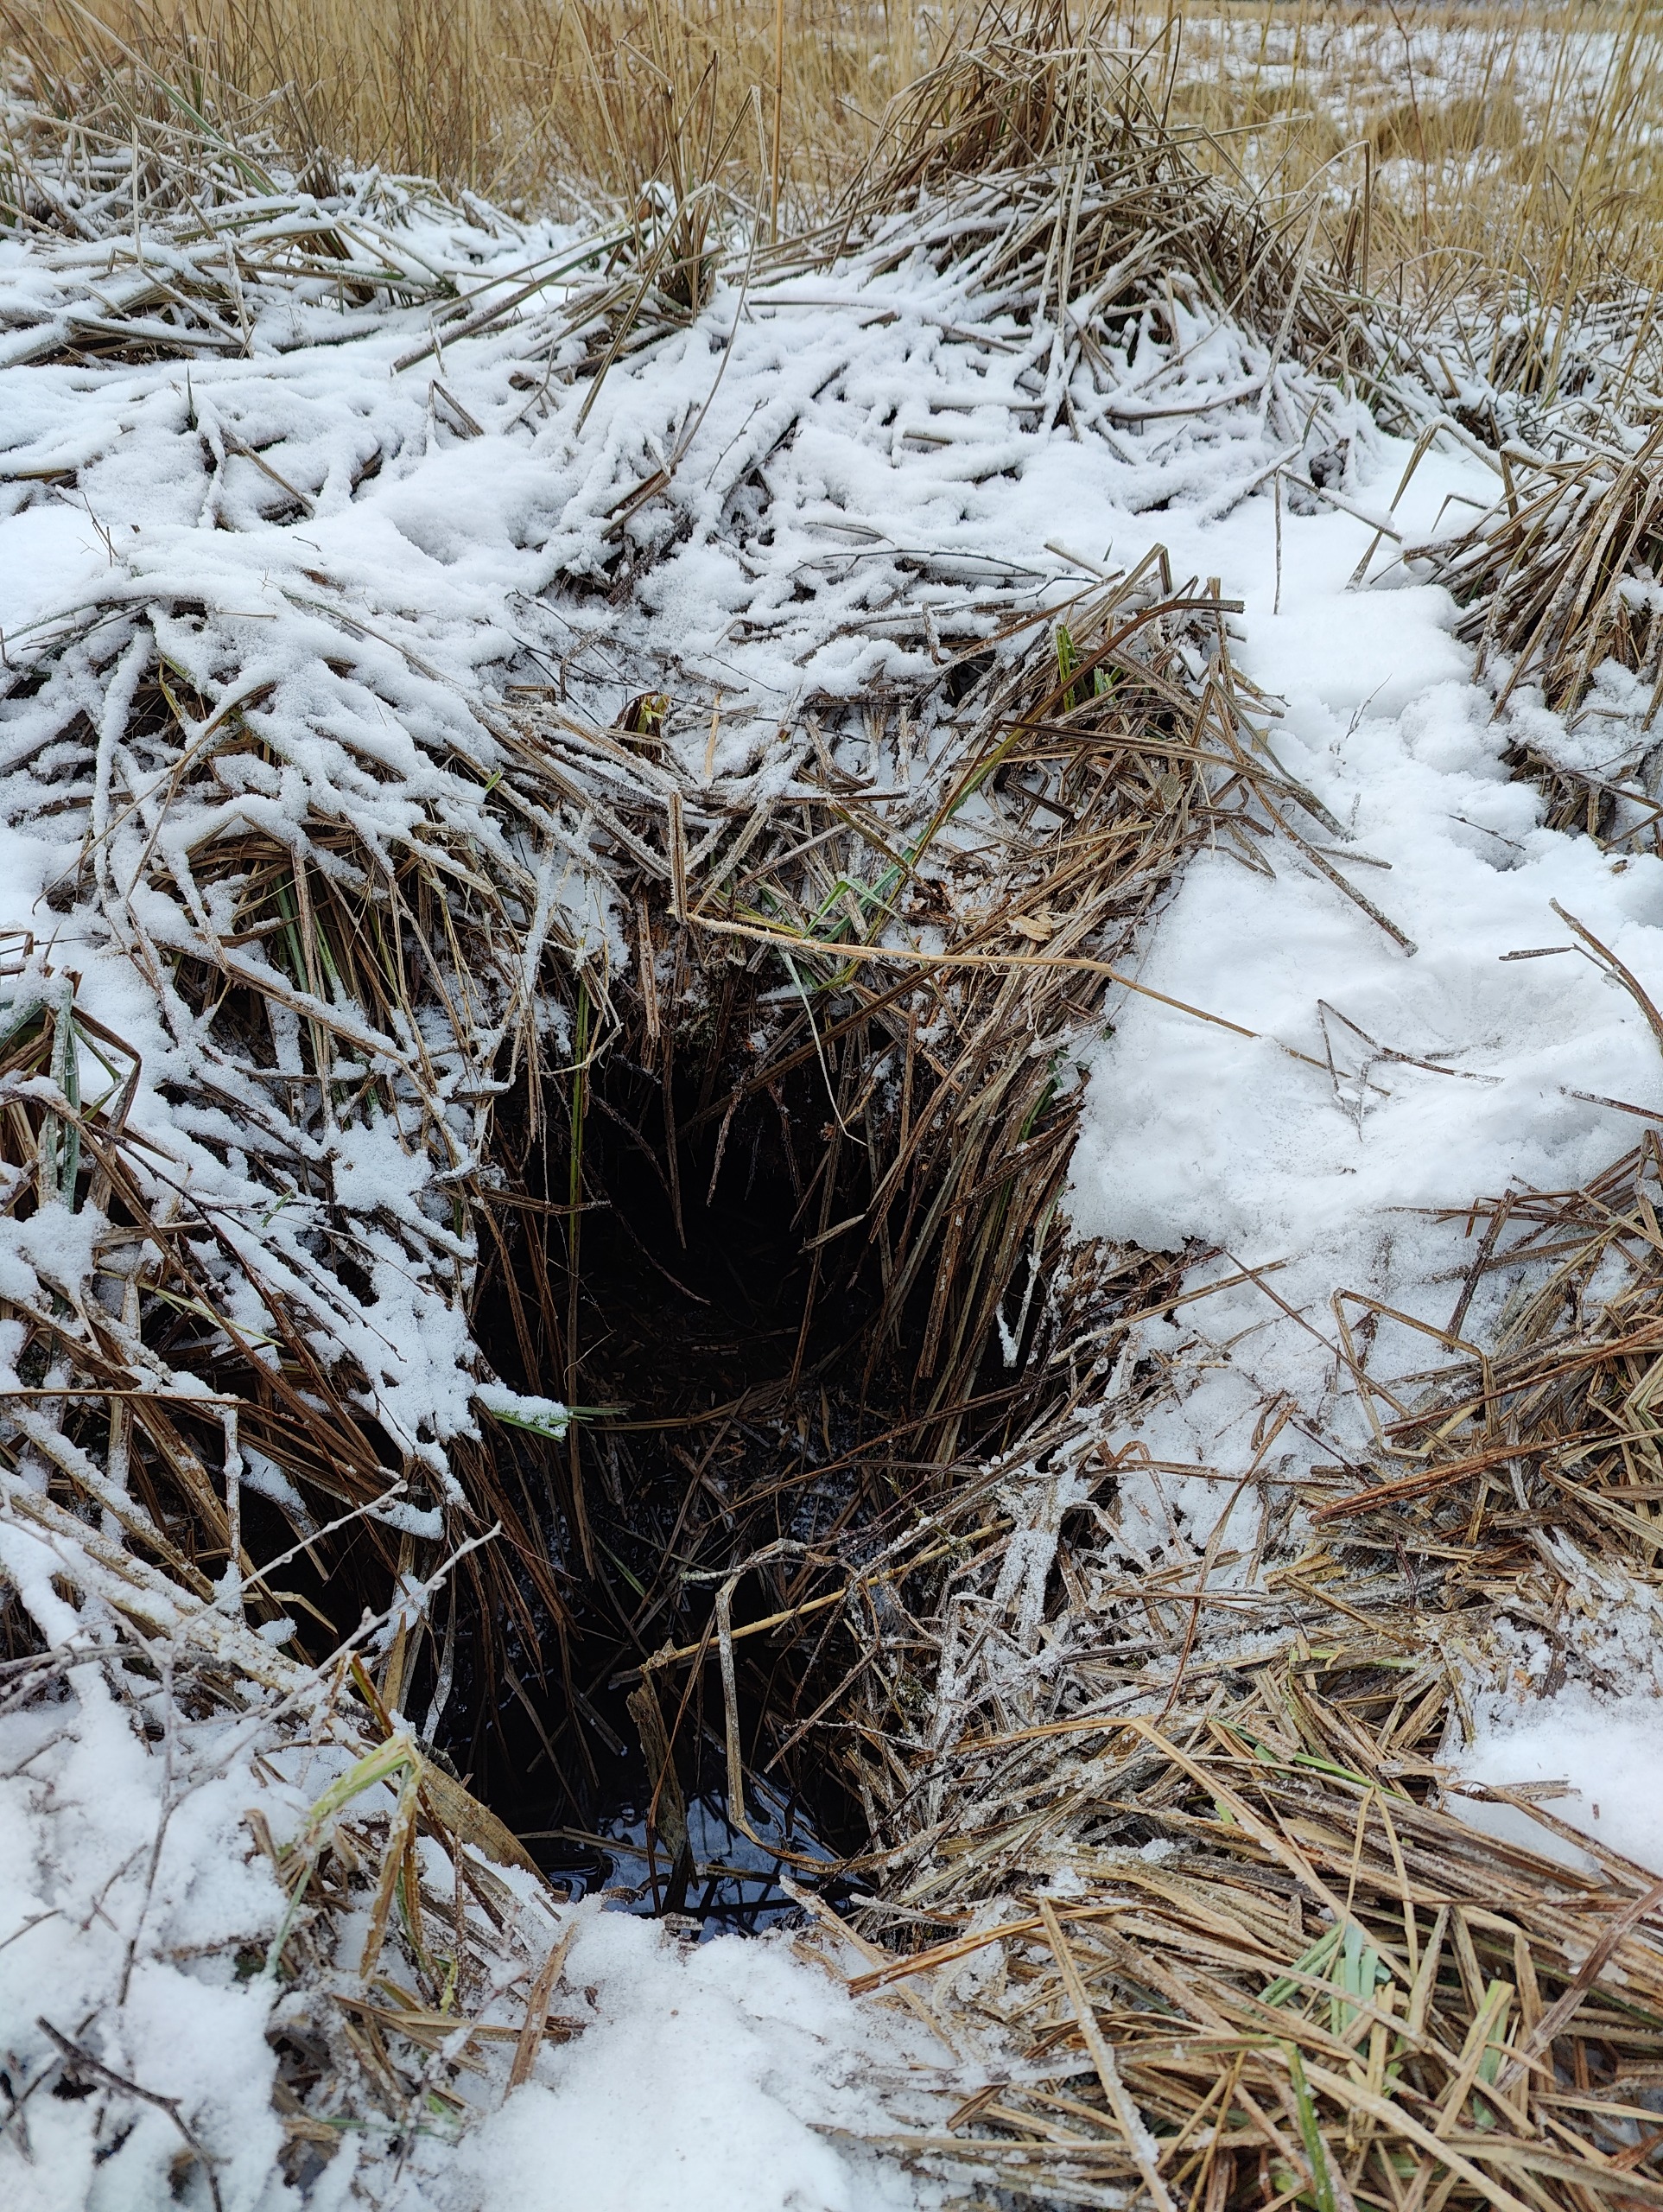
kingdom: Animalia
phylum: Chordata
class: Mammalia
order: Rodentia
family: Castoridae
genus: Castor
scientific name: Castor fiber
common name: Bæver
